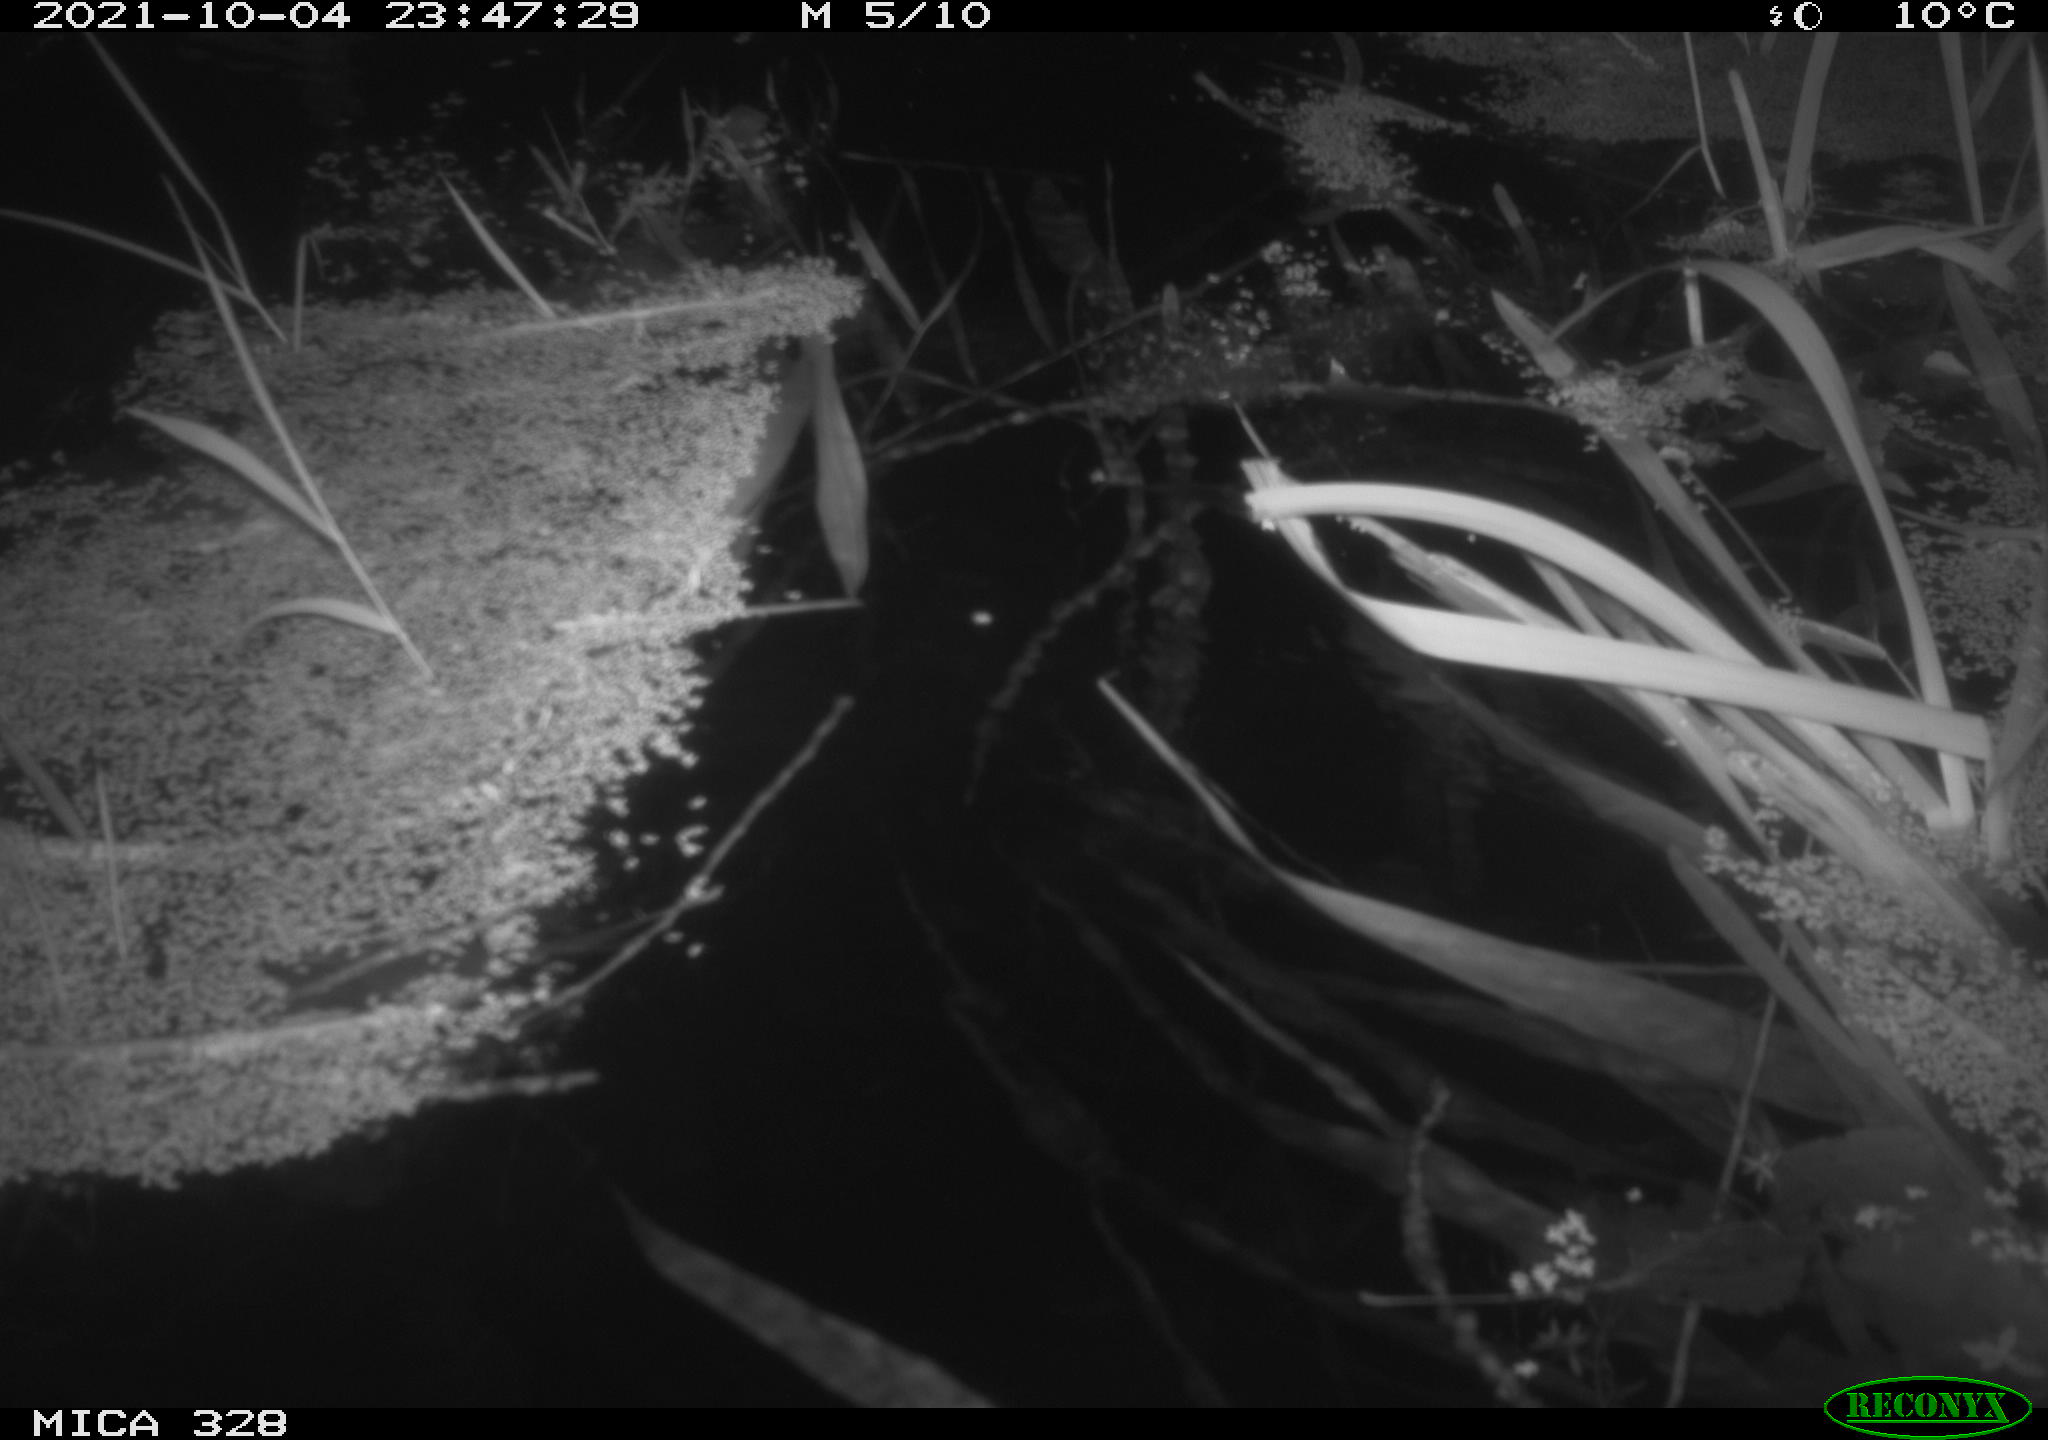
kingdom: Animalia
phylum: Chordata
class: Mammalia
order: Rodentia
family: Cricetidae
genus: Ondatra
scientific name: Ondatra zibethicus
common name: Muskrat
